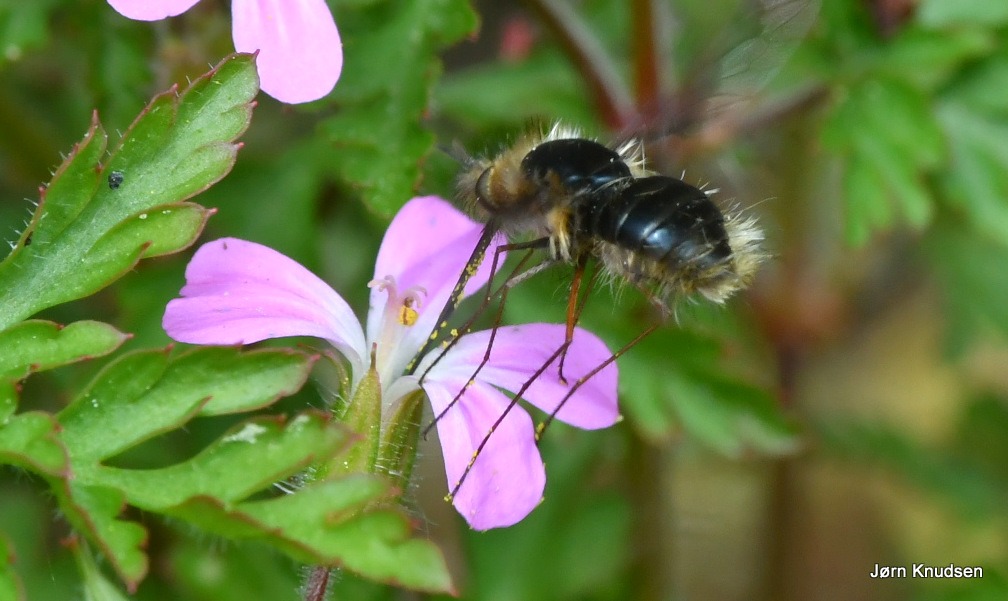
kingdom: Animalia
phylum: Arthropoda
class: Insecta
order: Diptera
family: Bombyliidae
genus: Bombylius
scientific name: Bombylius major
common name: Stor humleflue
